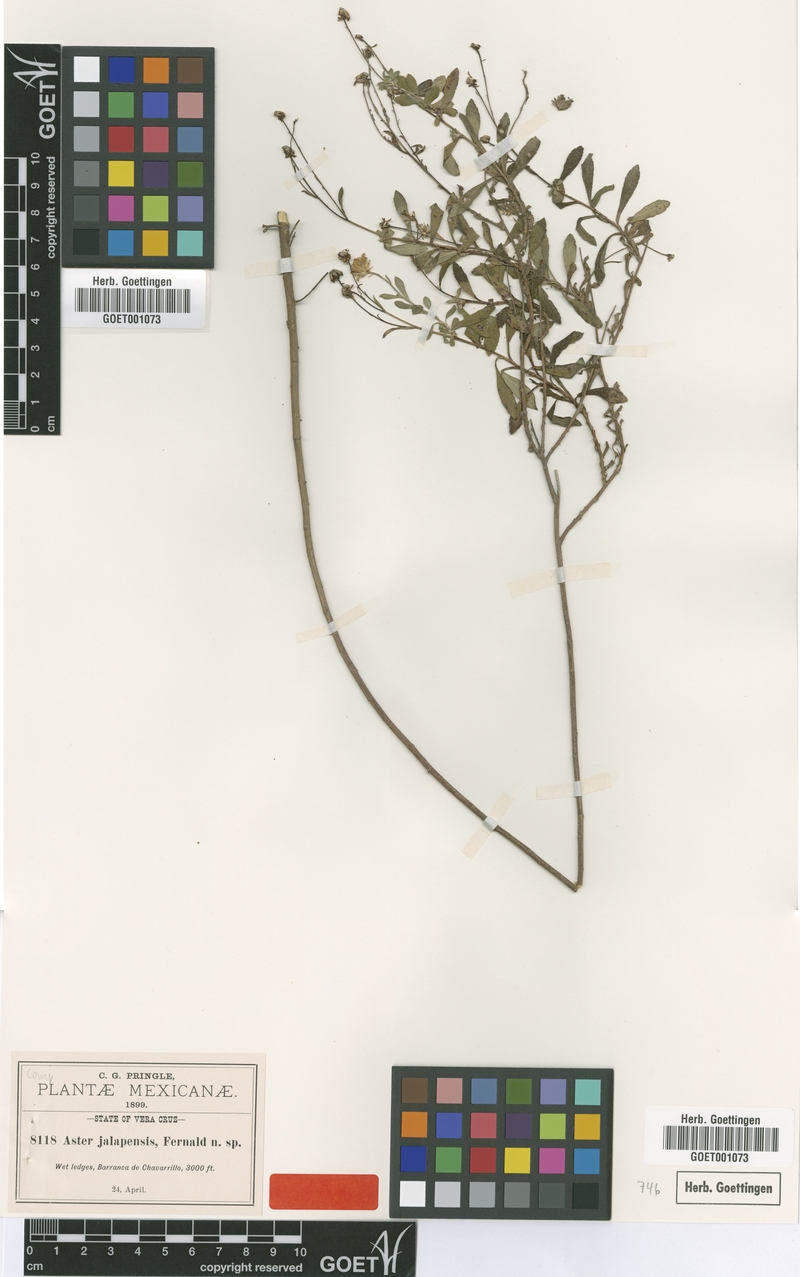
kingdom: Plantae
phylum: Tracheophyta
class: Magnoliopsida
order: Asterales
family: Asteraceae
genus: Symphyotrichum
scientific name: Symphyotrichum bullatum
